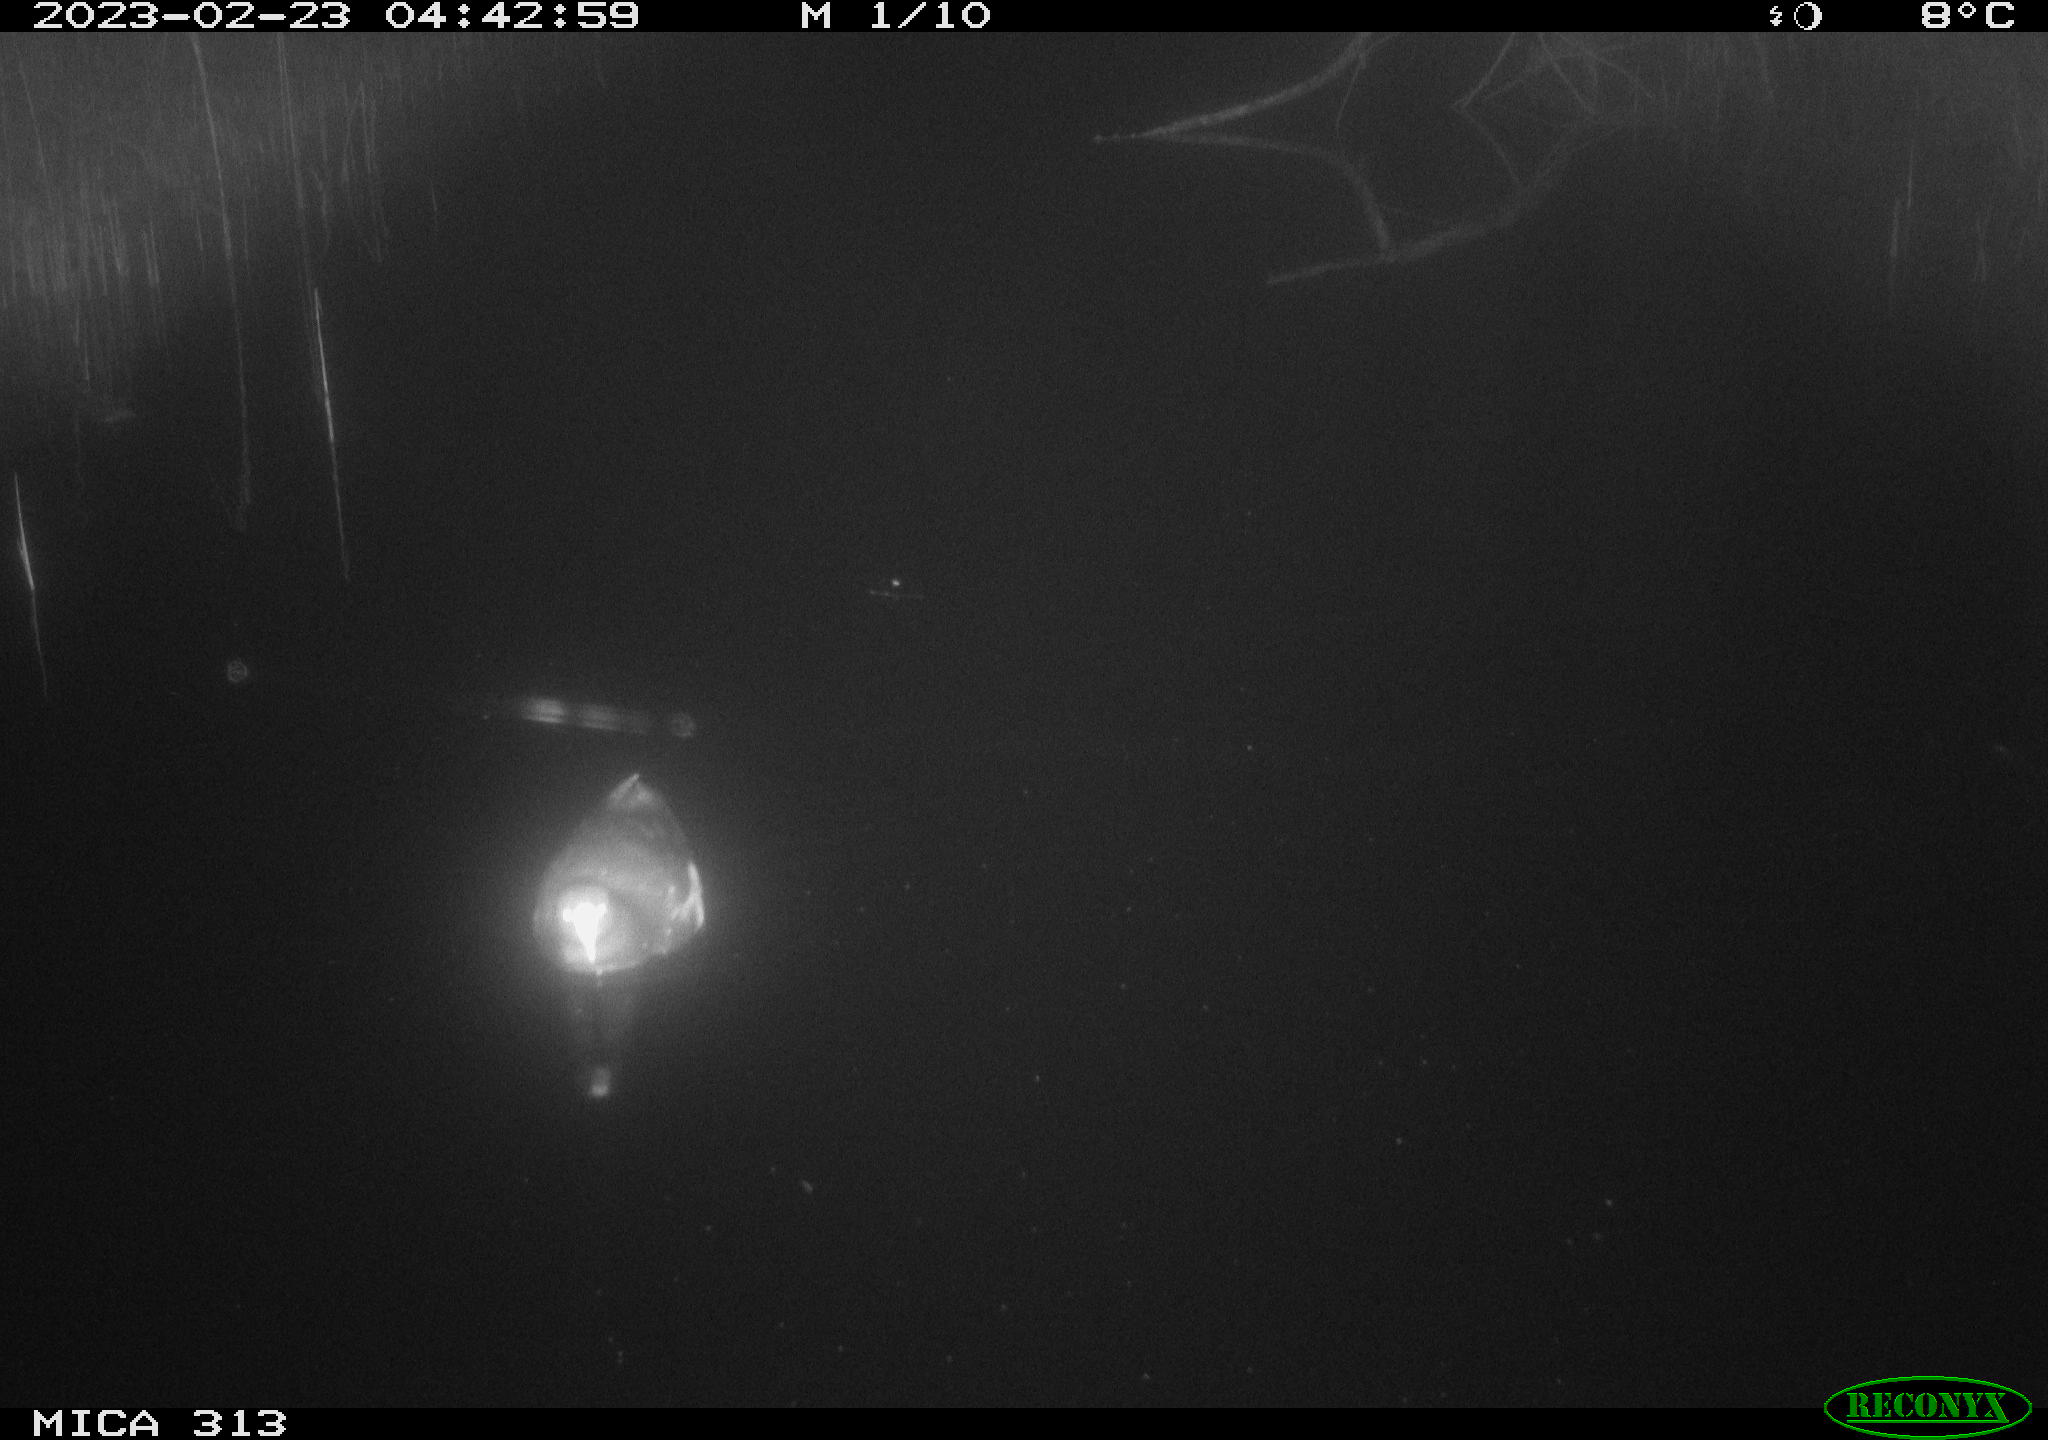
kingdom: Animalia
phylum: Chordata
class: Mammalia
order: Rodentia
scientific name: Rodentia
